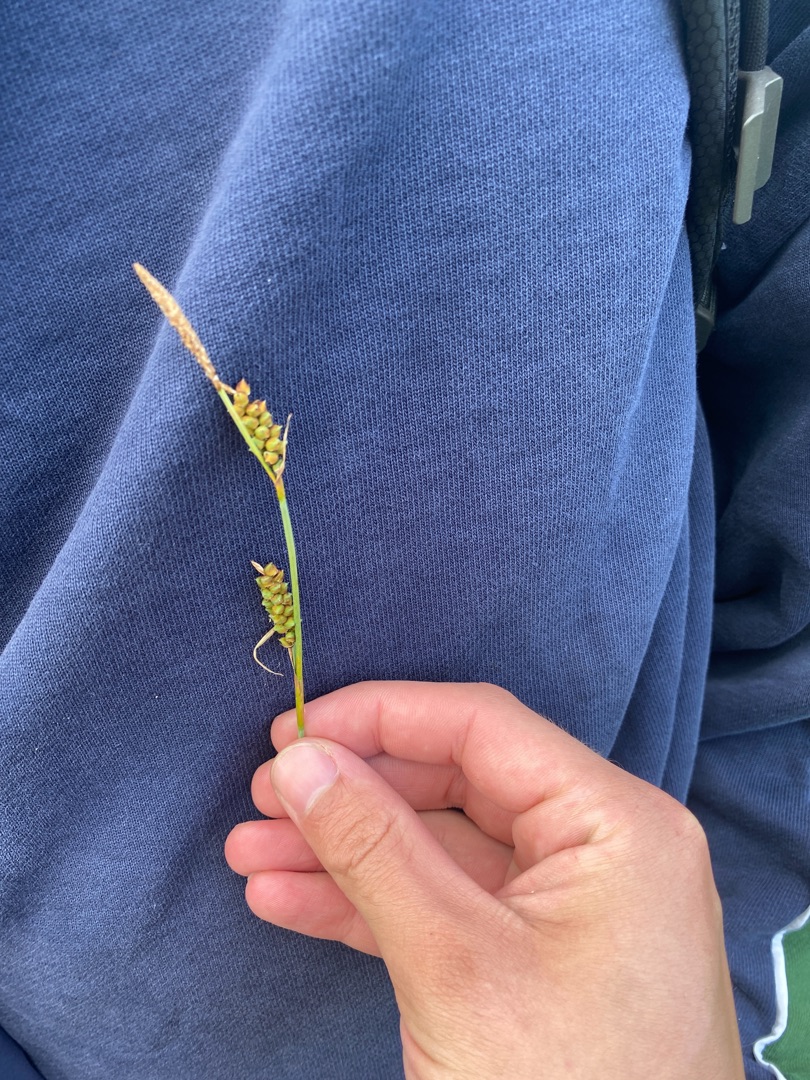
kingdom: Plantae
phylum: Tracheophyta
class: Liliopsida
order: Poales
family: Cyperaceae
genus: Carex
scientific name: Carex panicea
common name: Hirse-star
